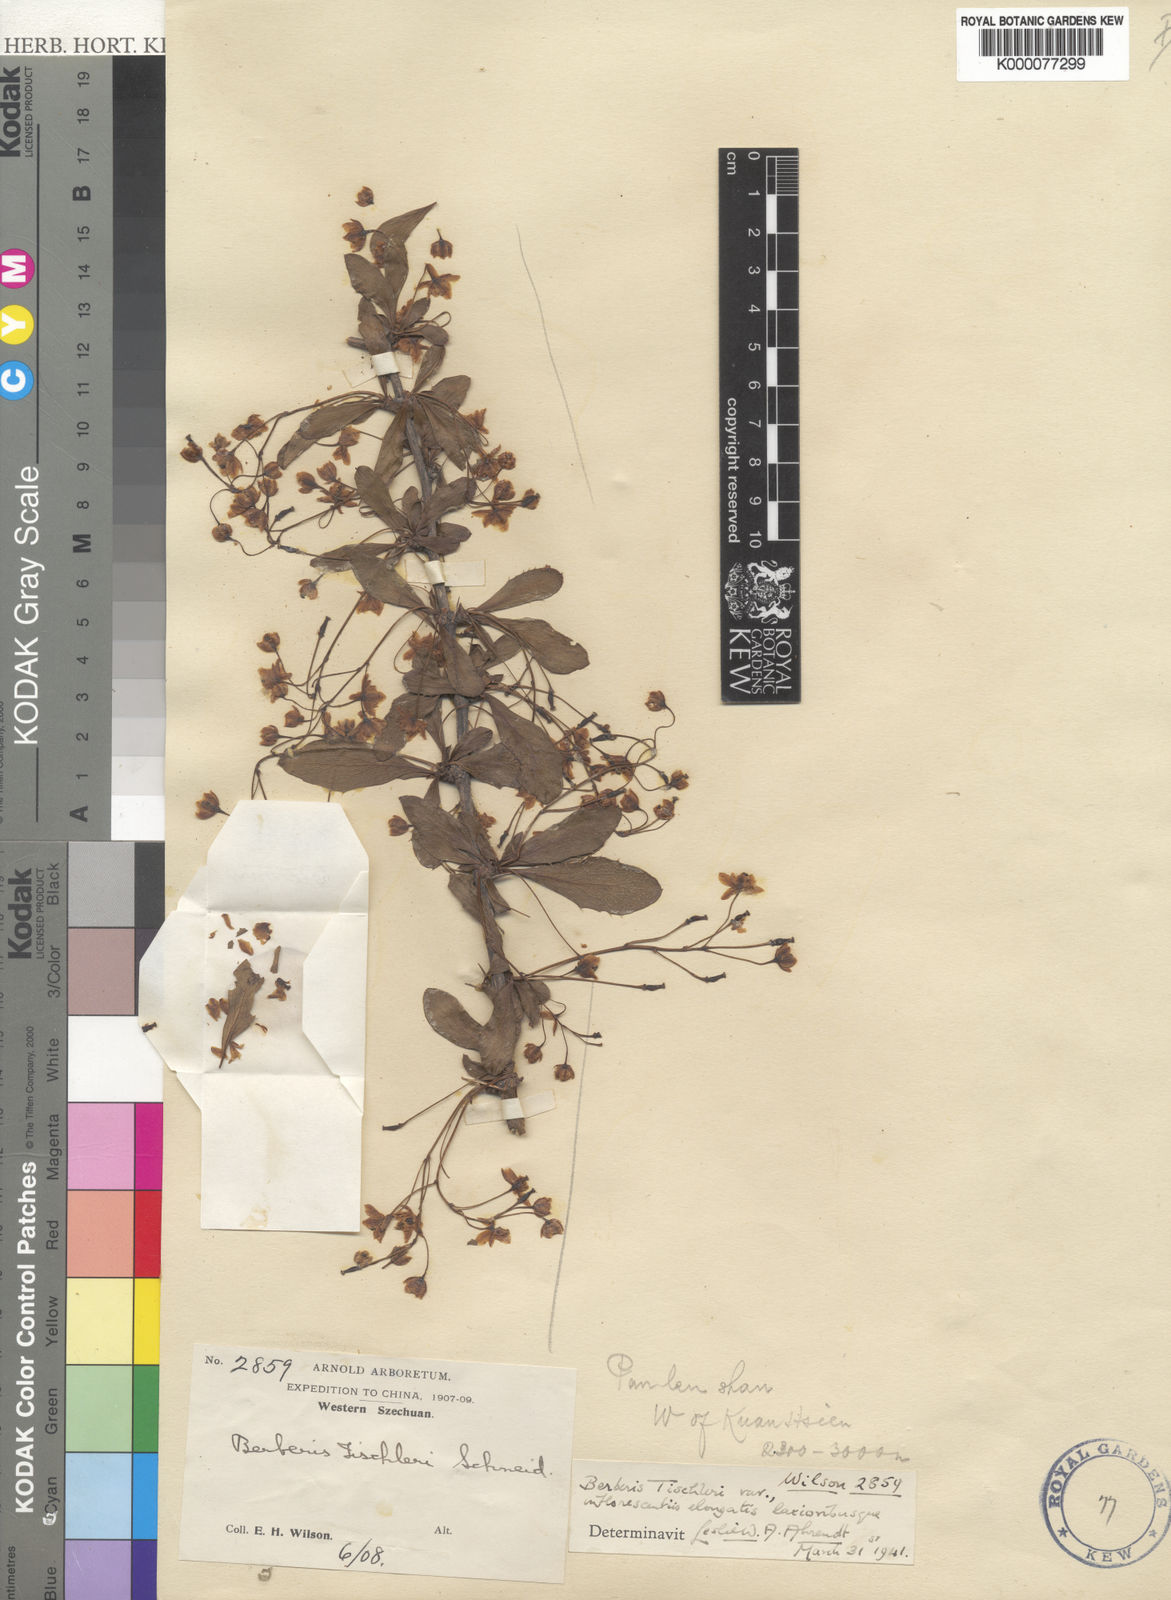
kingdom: Plantae
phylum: Tracheophyta
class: Magnoliopsida
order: Ranunculales
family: Berberidaceae
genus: Berberis
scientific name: Berberis tischleri
